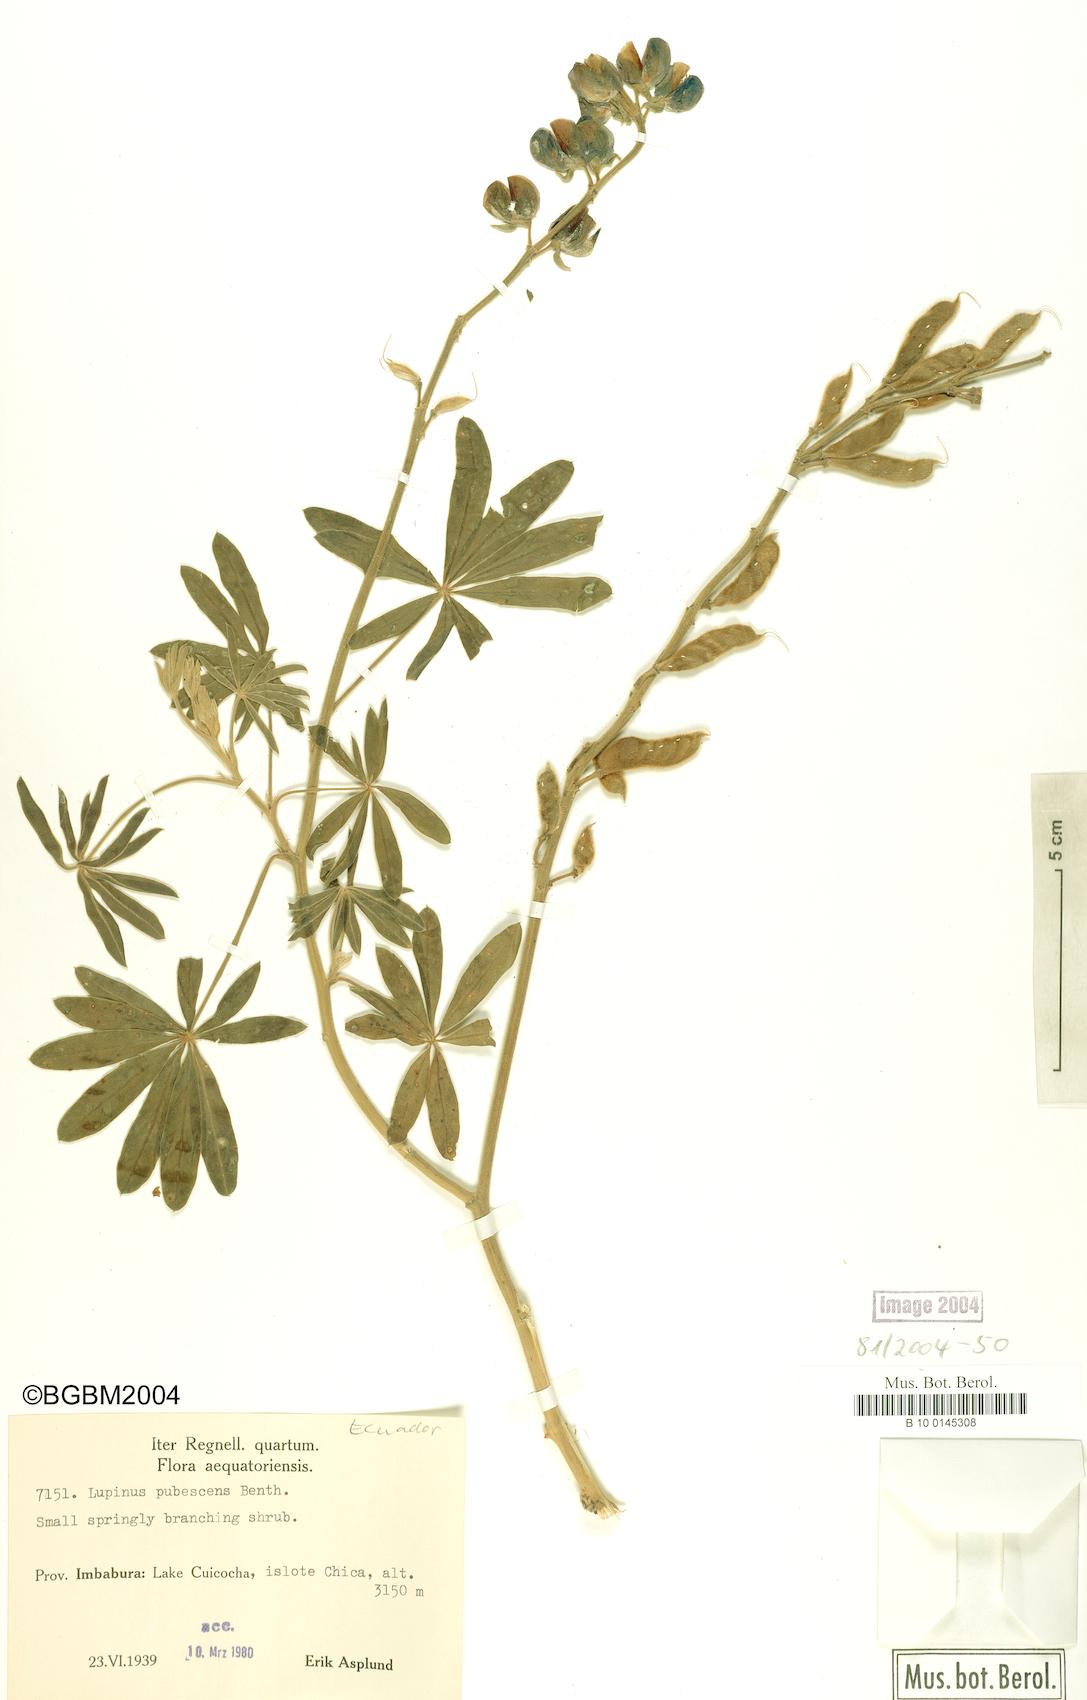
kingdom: Plantae
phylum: Tracheophyta
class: Magnoliopsida
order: Fabales
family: Fabaceae
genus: Lupinus
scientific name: Lupinus pubescens
